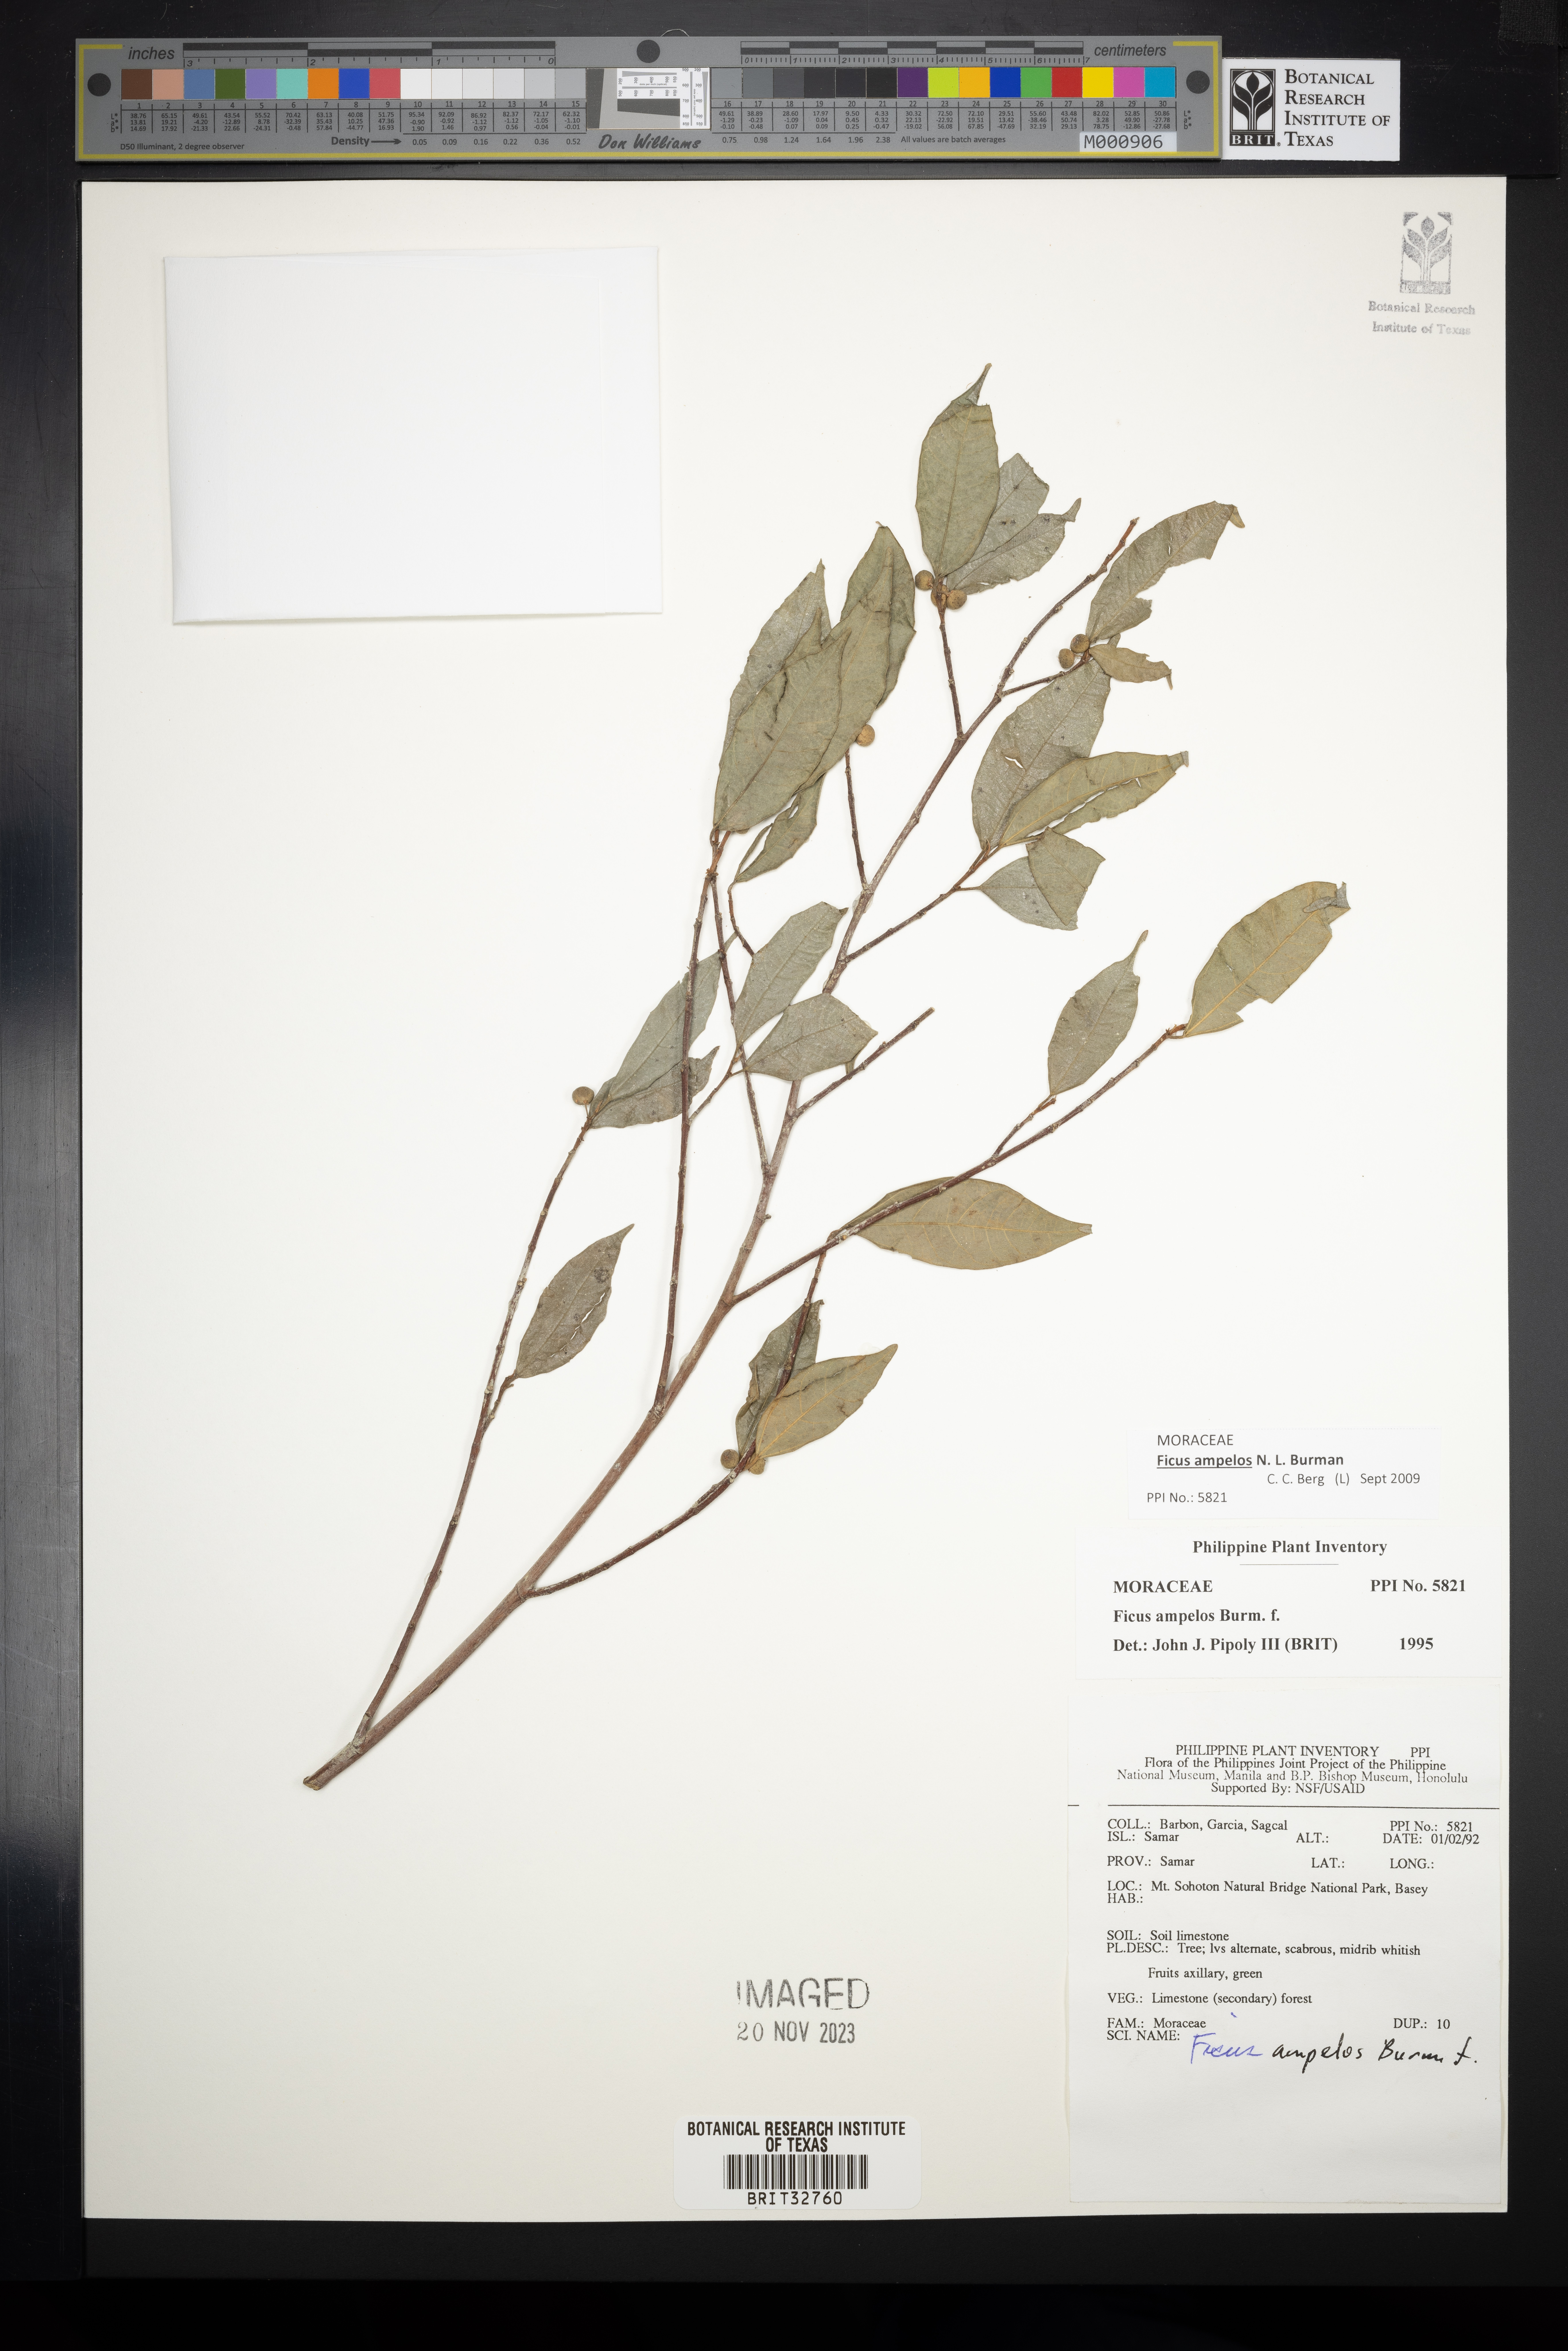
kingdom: Plantae
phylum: Tracheophyta
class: Magnoliopsida
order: Rosales
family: Moraceae
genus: Ficus
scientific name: Ficus ampelos
